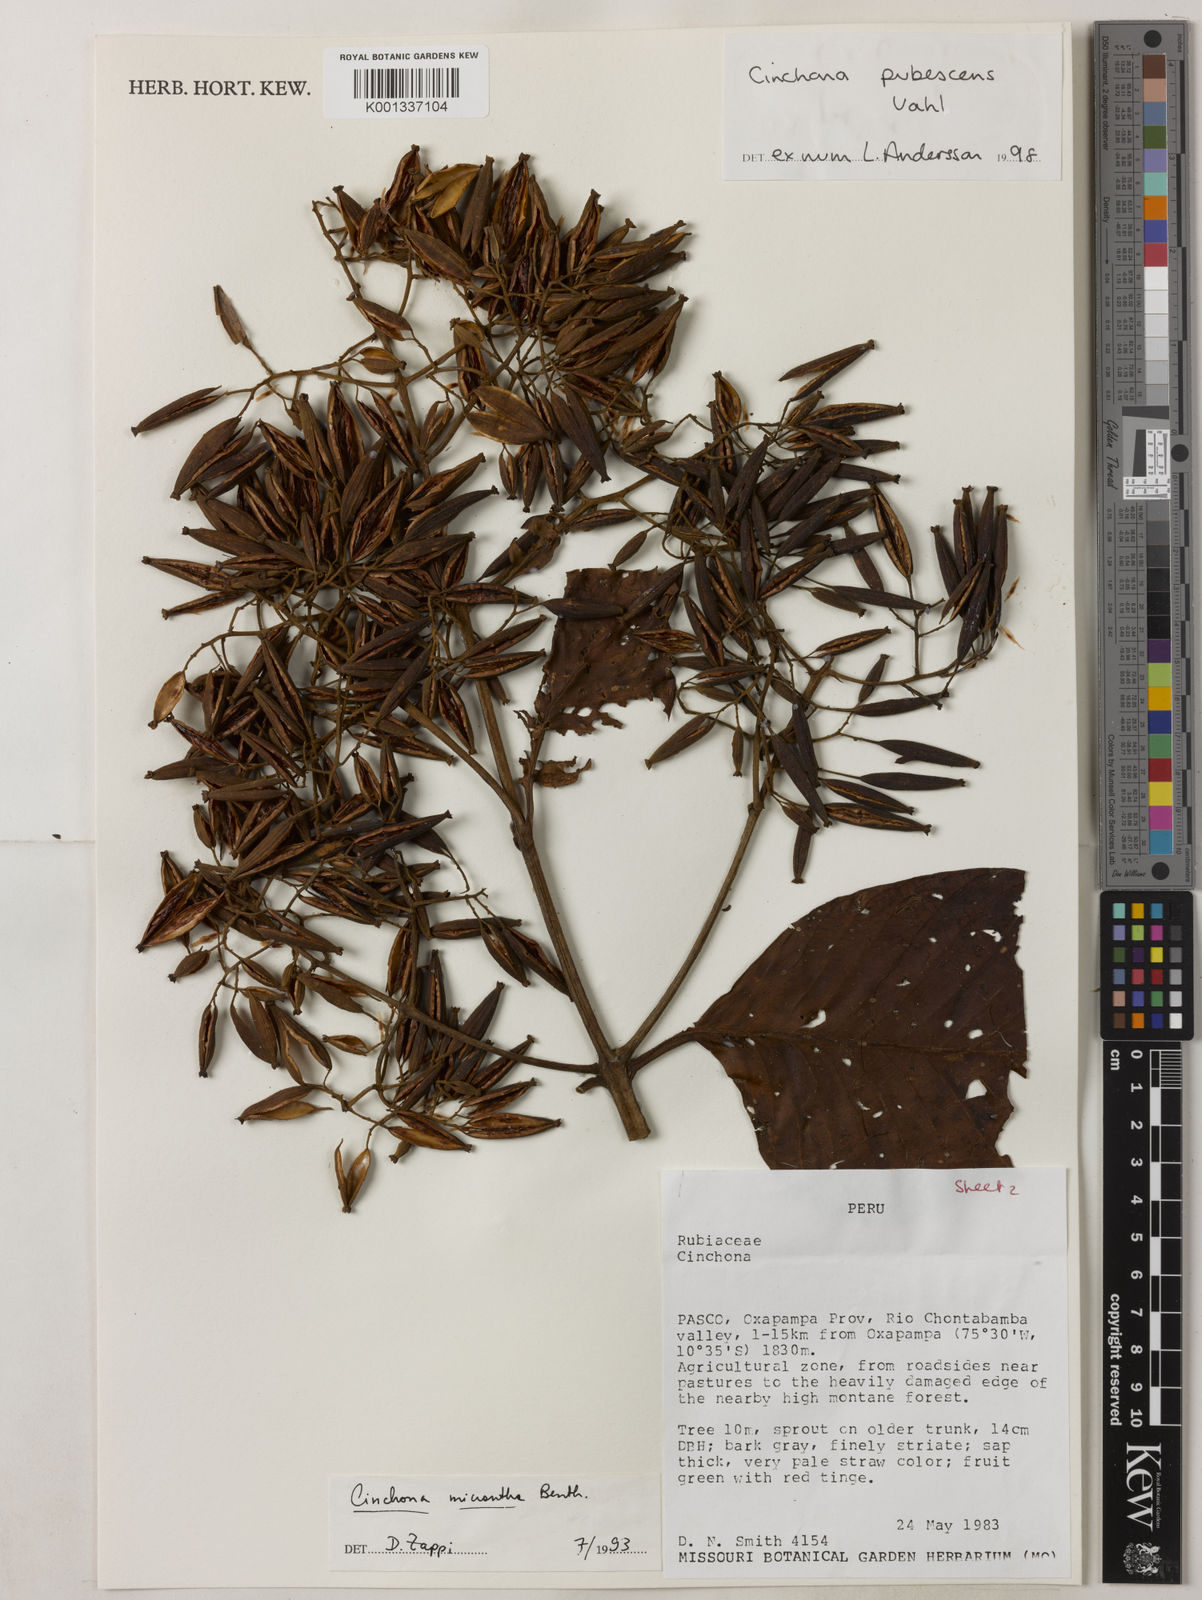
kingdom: Plantae
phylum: Tracheophyta
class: Magnoliopsida
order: Gentianales
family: Rubiaceae
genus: Cinchona
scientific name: Cinchona pubescens
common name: Quinine
